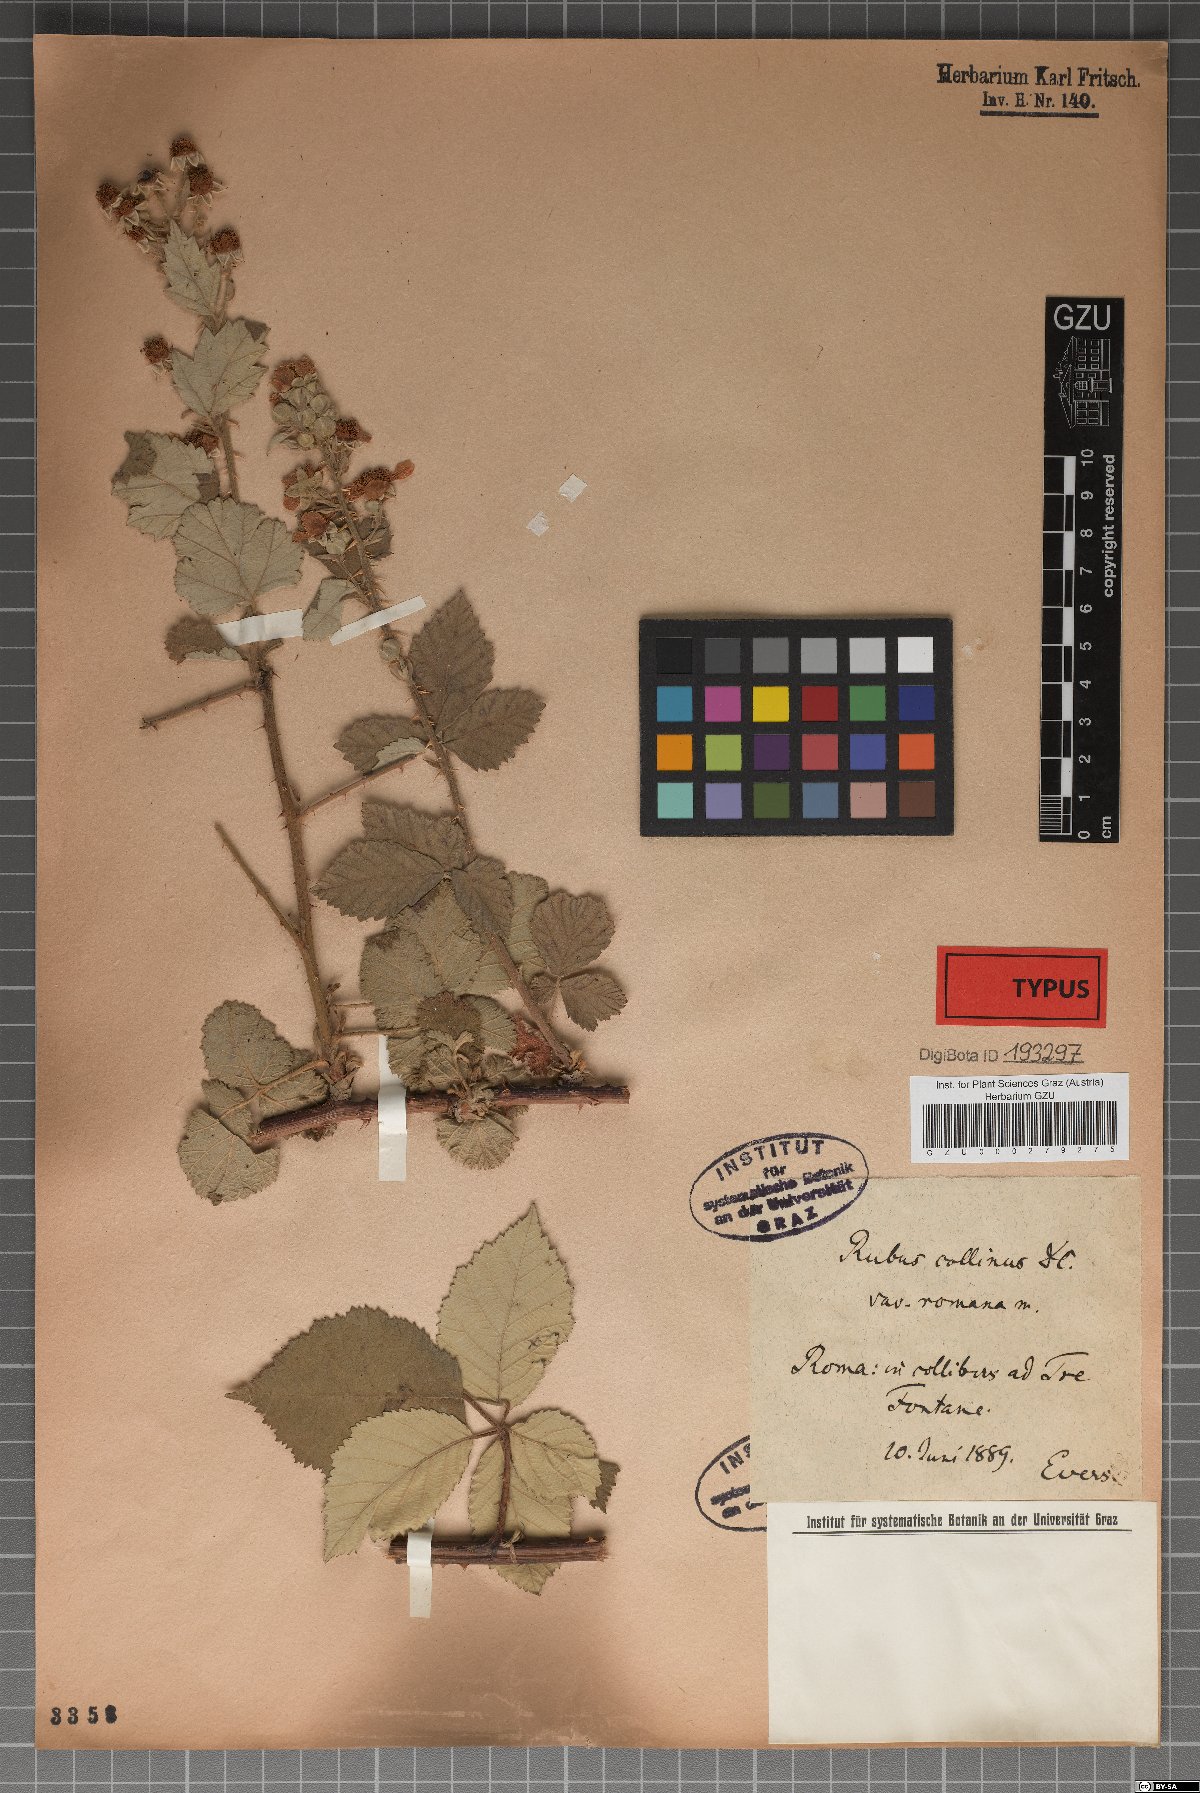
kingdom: Plantae
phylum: Tracheophyta
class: Magnoliopsida
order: Rosales
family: Rosaceae
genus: Rubus
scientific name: Rubus collinus
